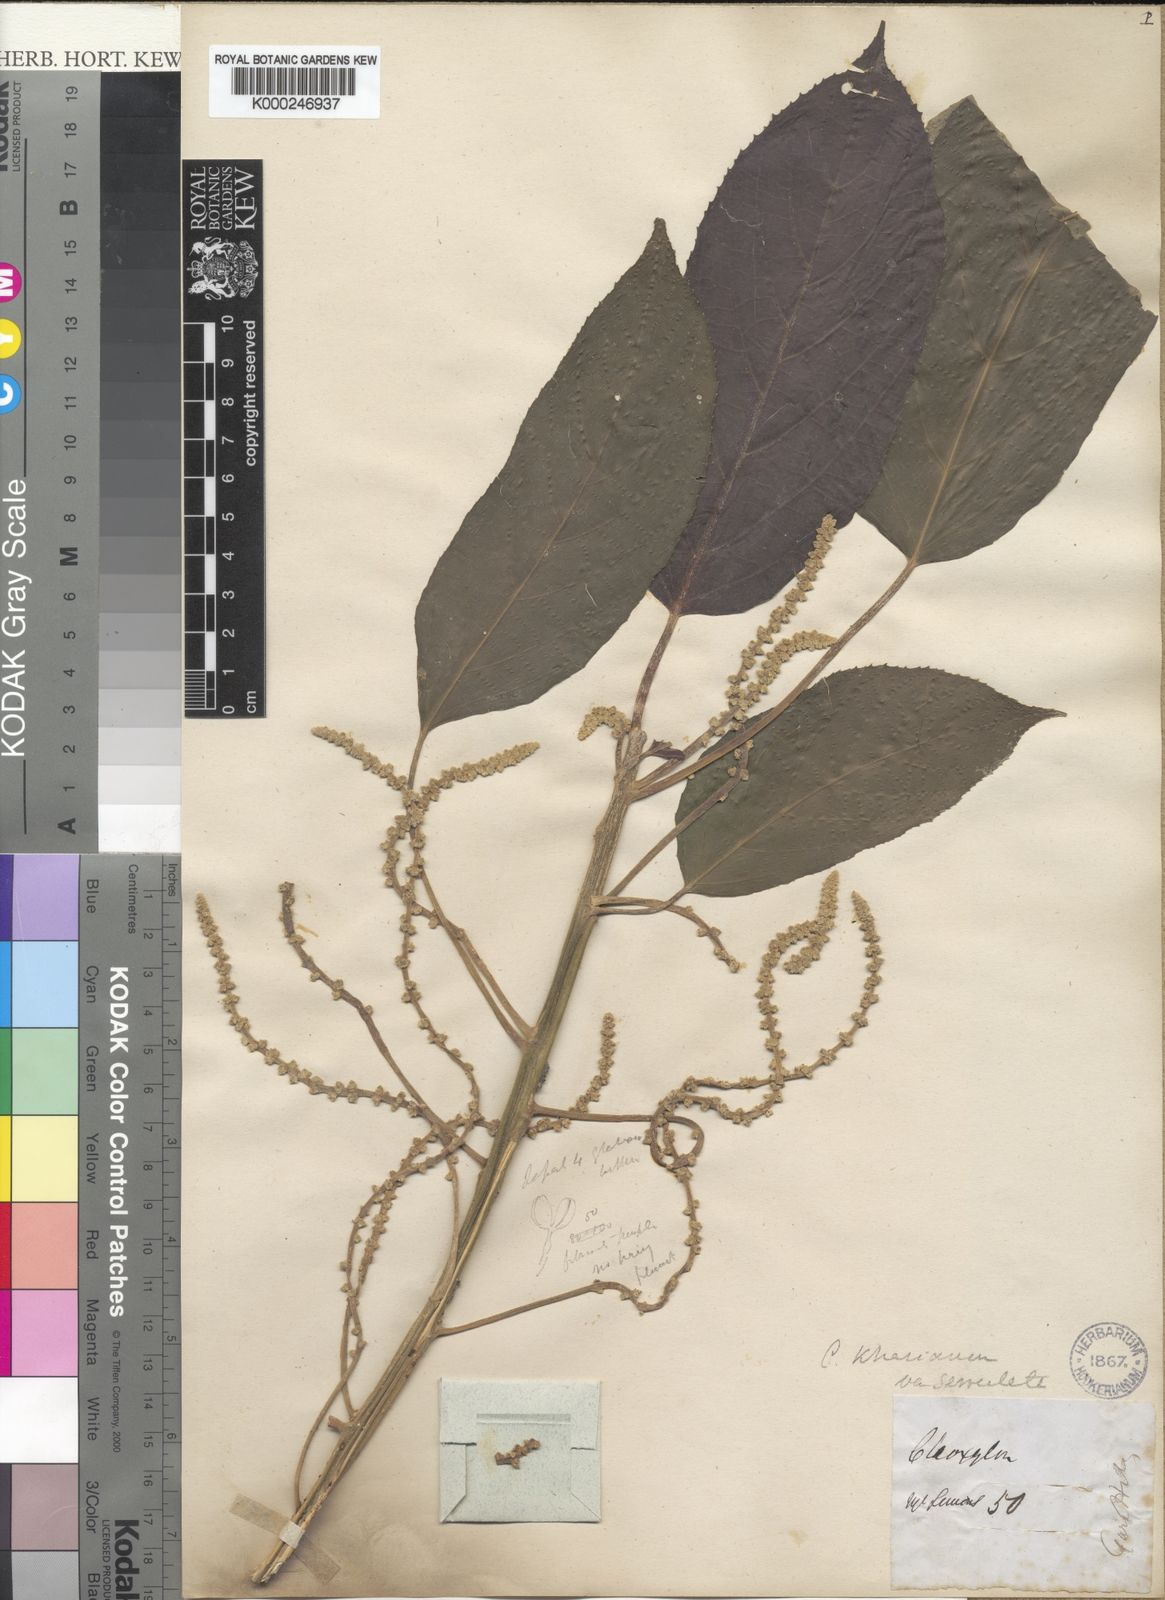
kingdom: Plantae
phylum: Tracheophyta
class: Magnoliopsida
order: Malpighiales
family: Euphorbiaceae
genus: Claoxylon
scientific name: Claoxylon khasianum
